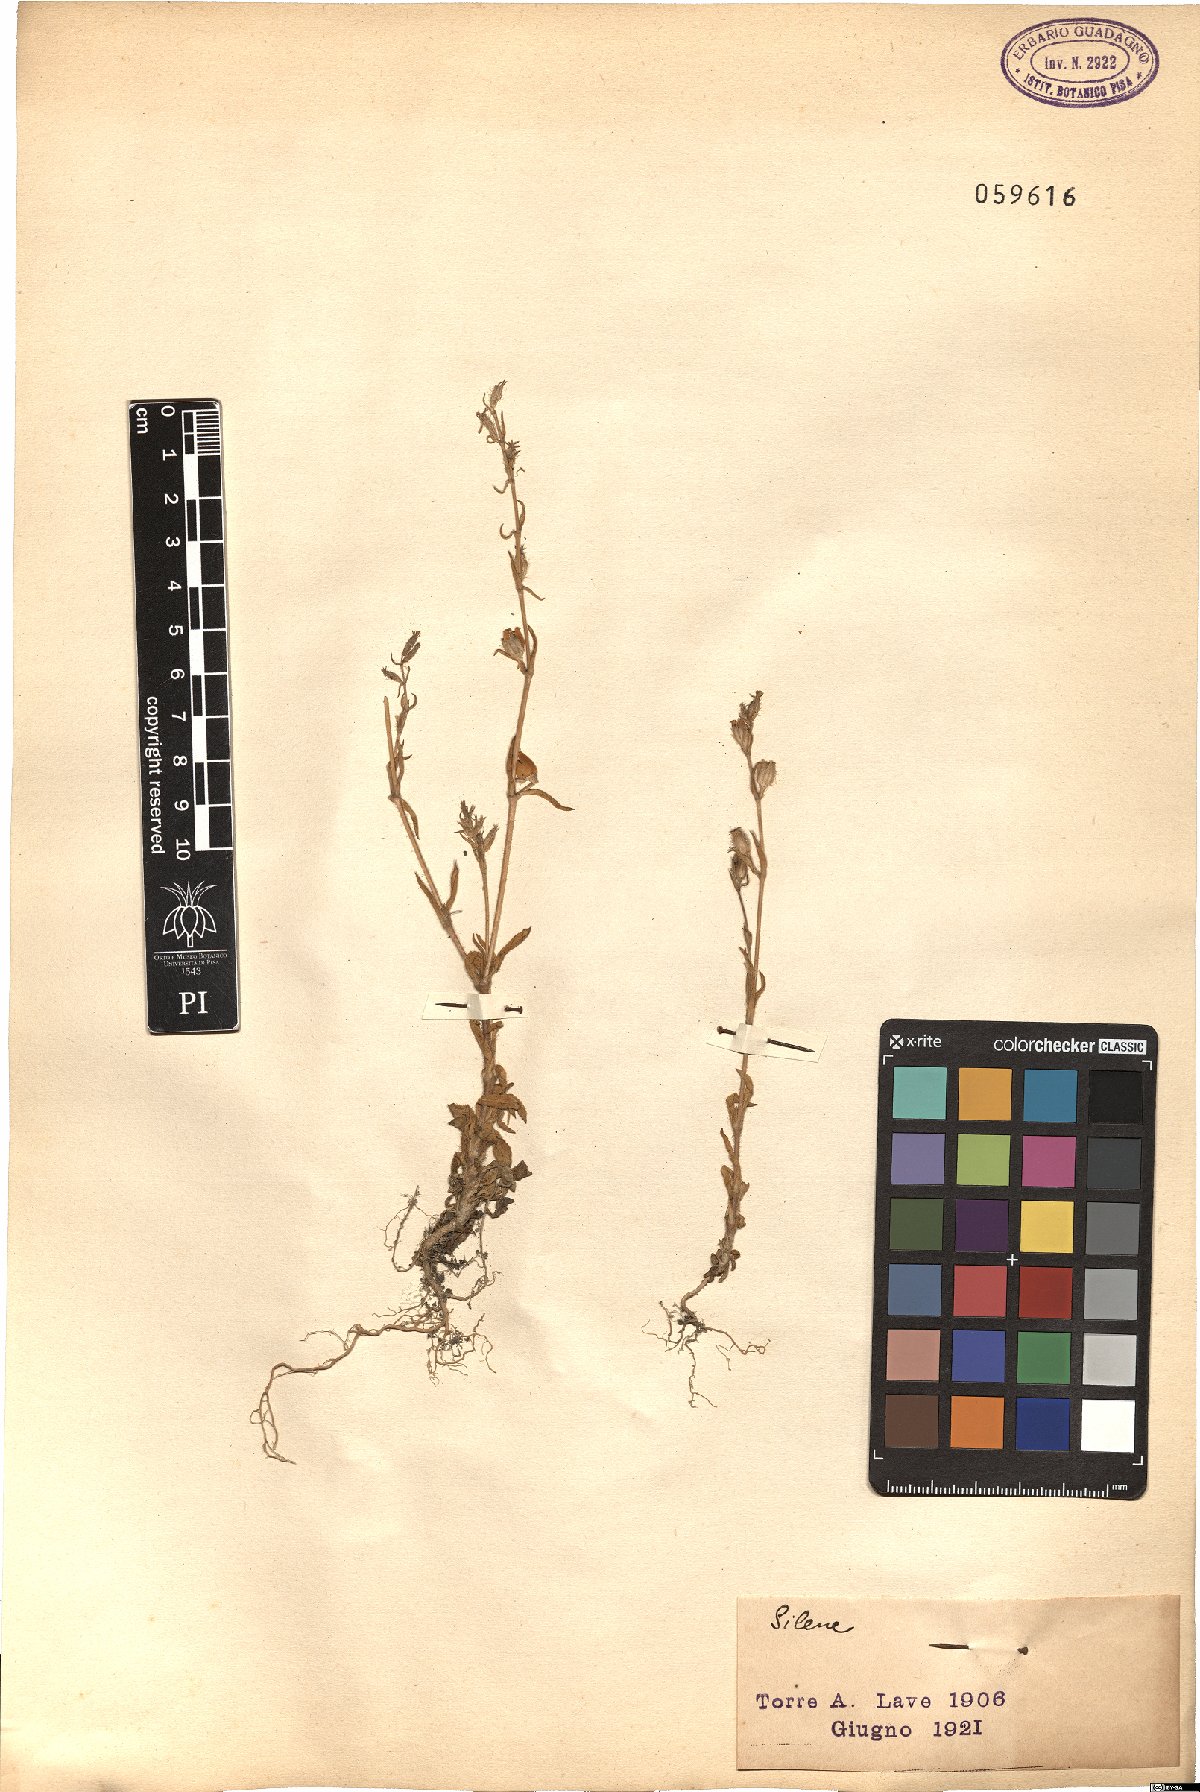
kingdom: Plantae
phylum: Tracheophyta
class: Magnoliopsida
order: Caryophyllales
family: Caryophyllaceae
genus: Silene
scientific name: Silene
